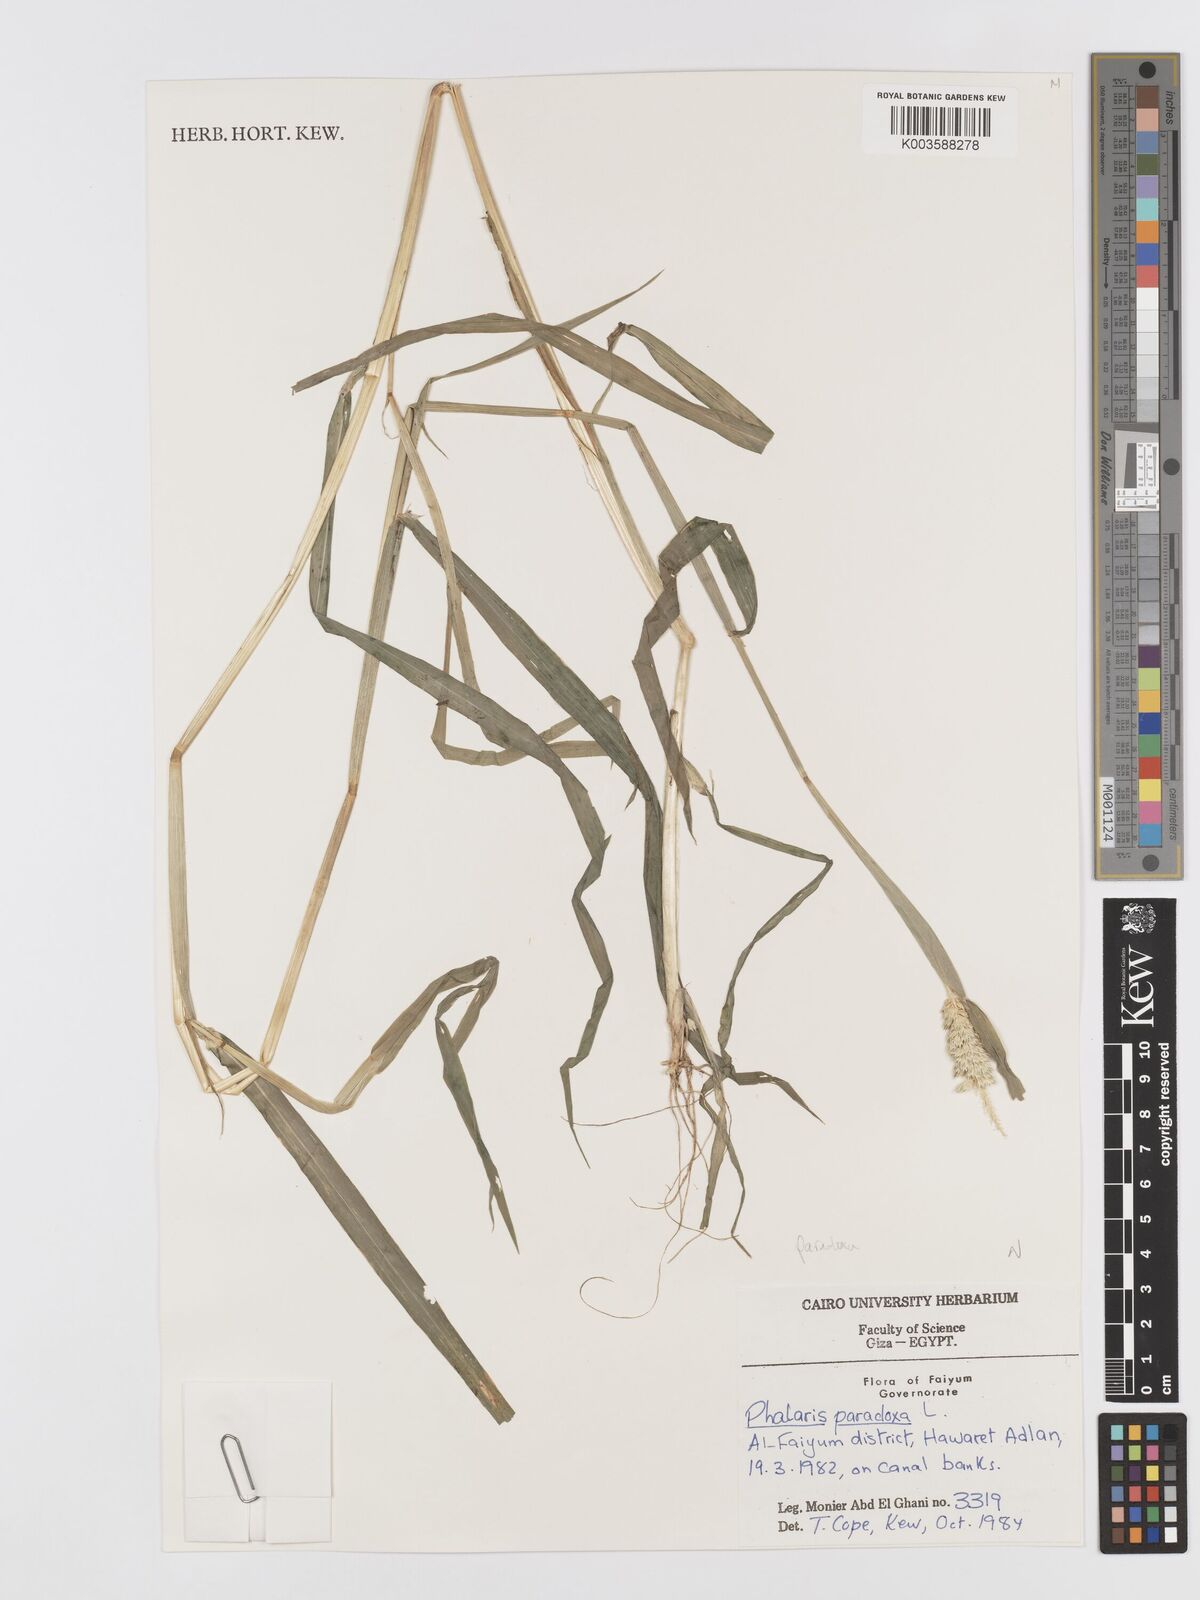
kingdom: Plantae
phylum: Tracheophyta
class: Liliopsida
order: Poales
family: Poaceae
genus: Phalaris
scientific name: Phalaris paradoxa
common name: Awned canary-grass
